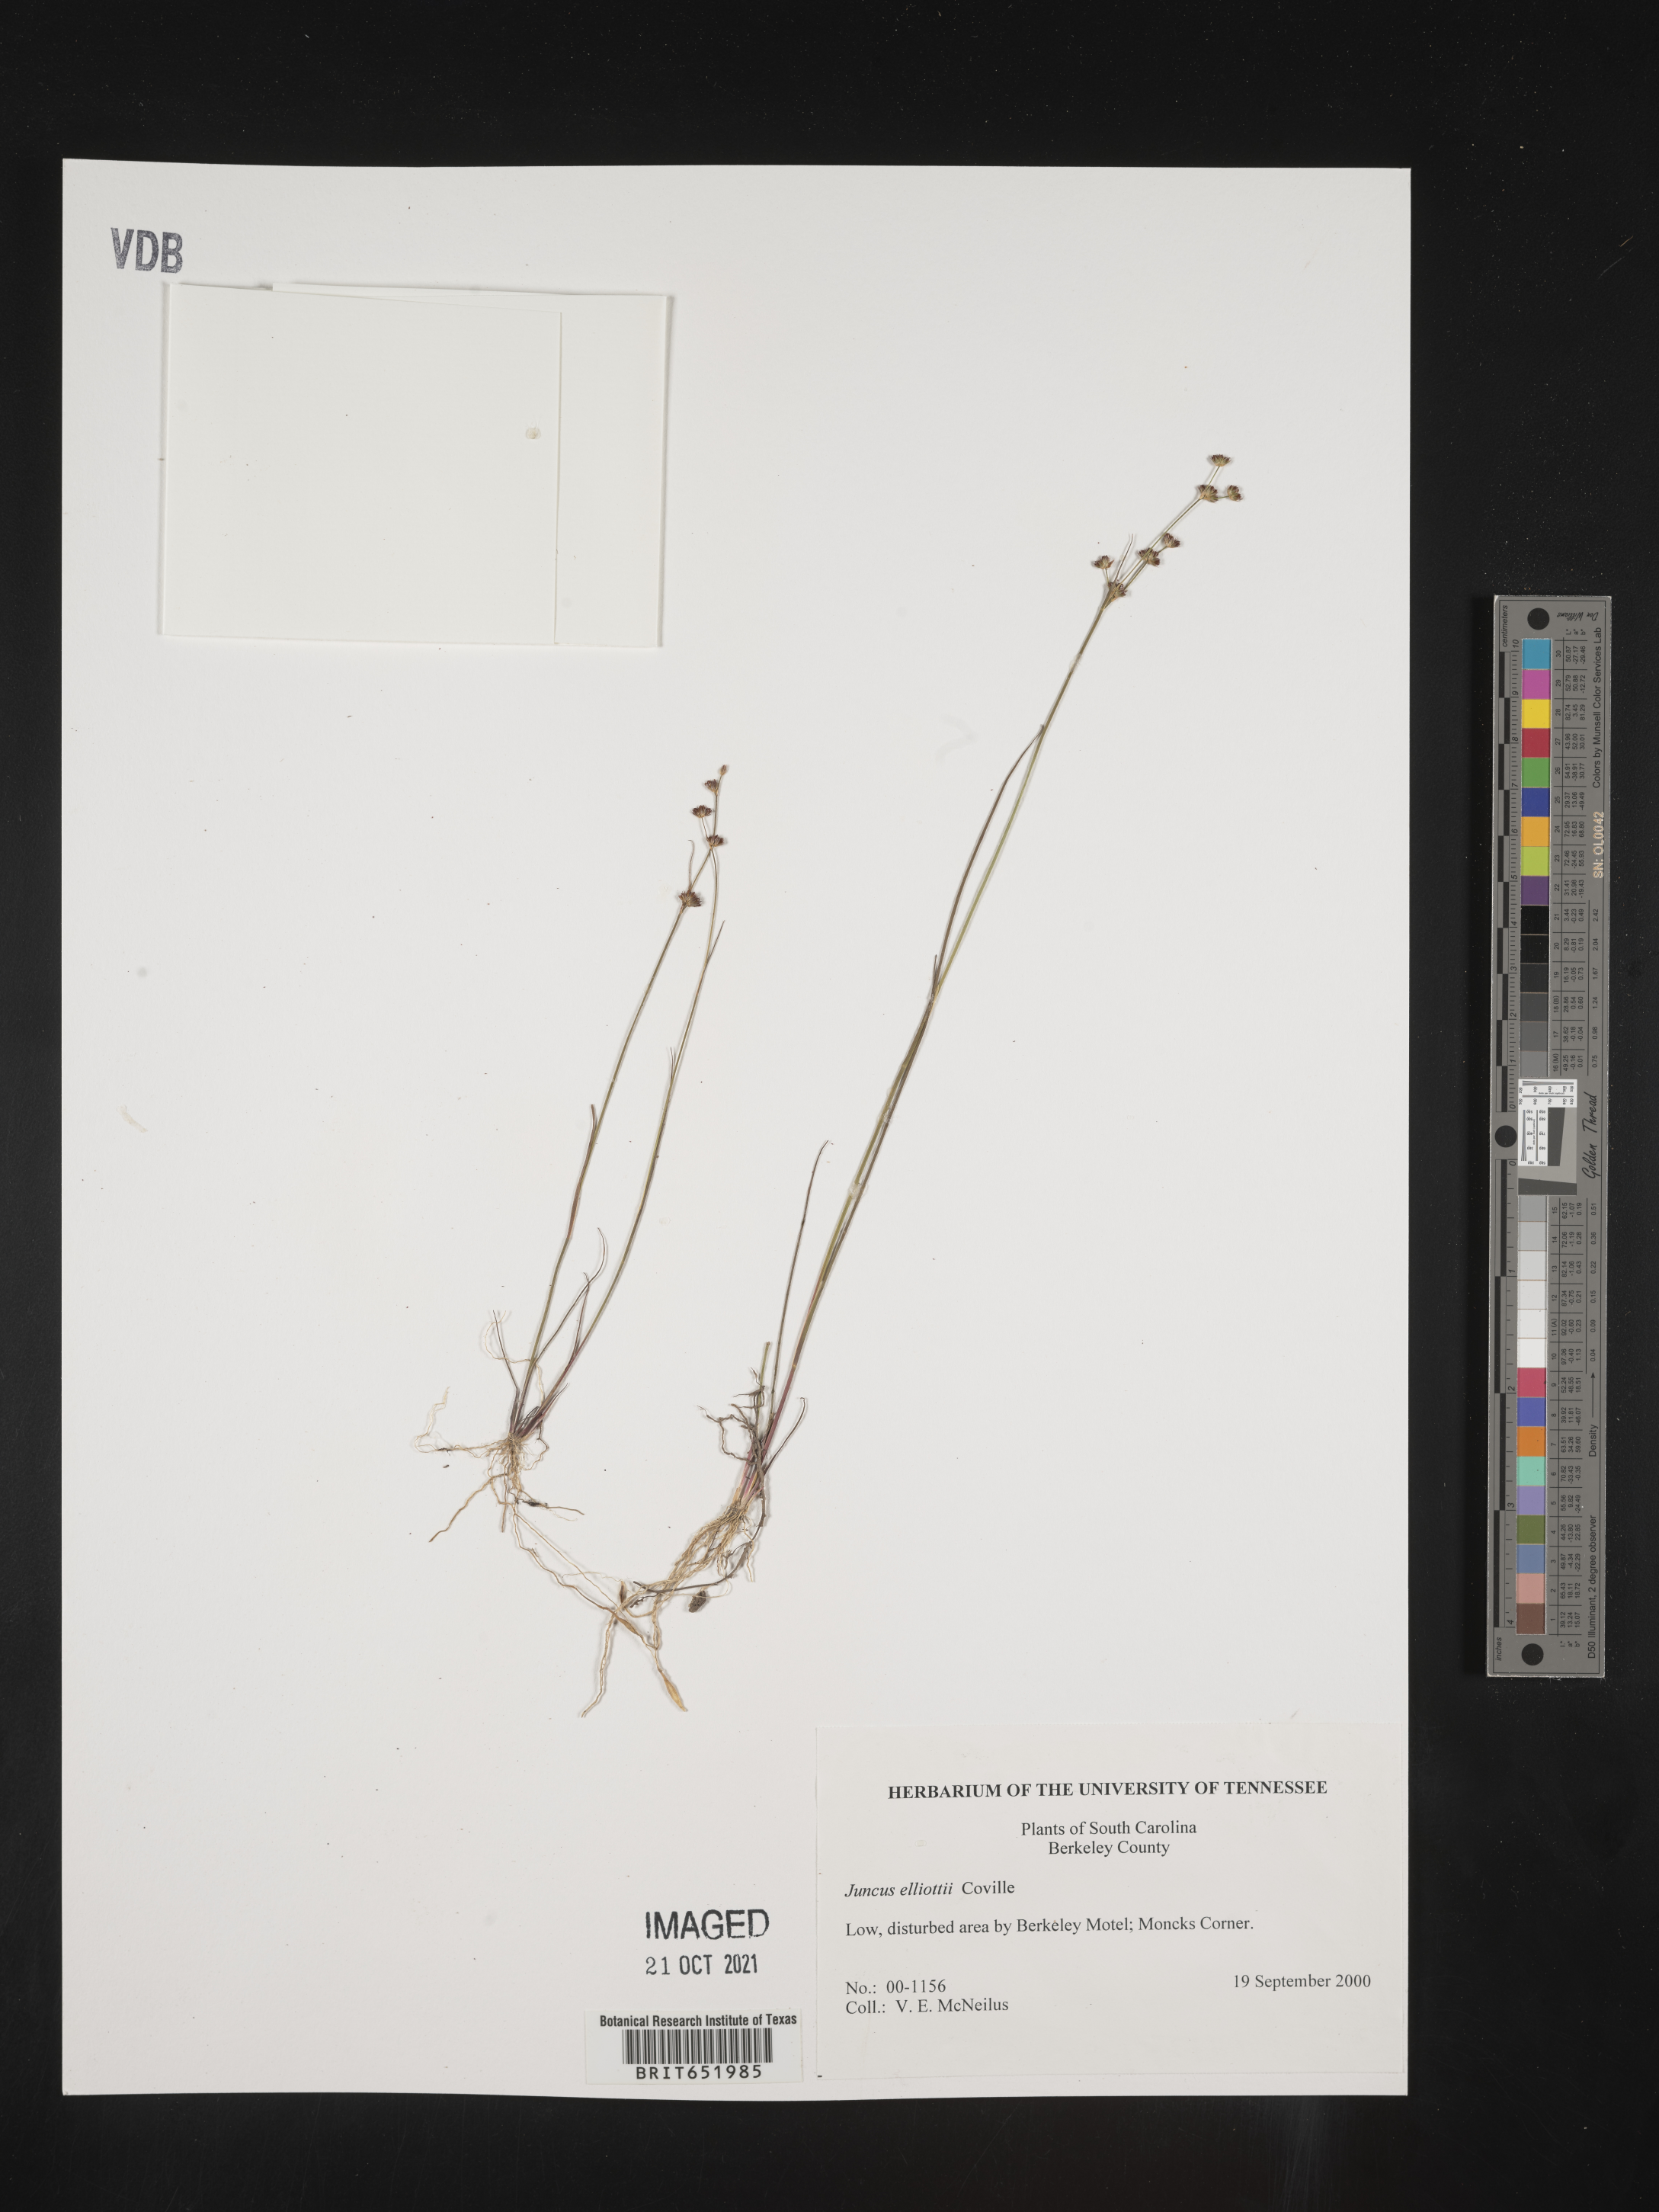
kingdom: Plantae
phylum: Tracheophyta
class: Liliopsida
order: Poales
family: Juncaceae
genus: Juncus
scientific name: Juncus elliottii
